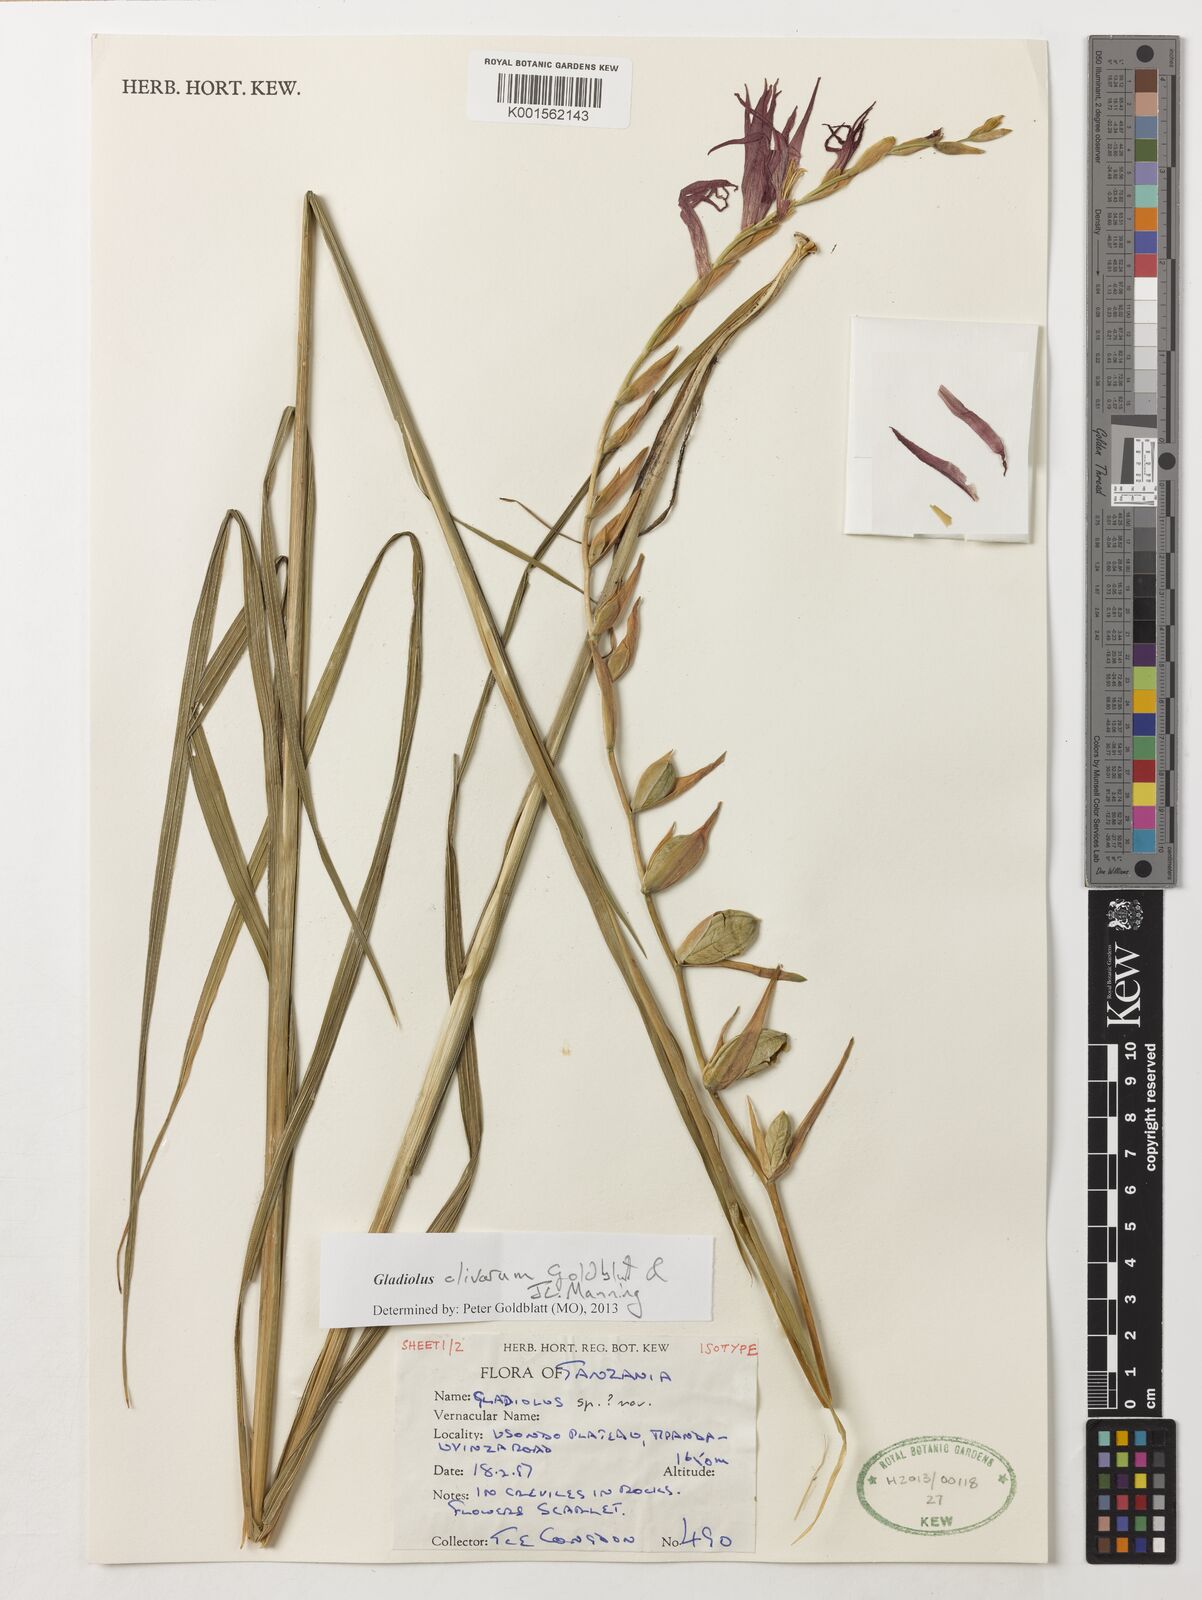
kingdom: Plantae
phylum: Tracheophyta
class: Liliopsida
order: Asparagales
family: Iridaceae
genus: Gladiolus
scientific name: Gladiolus clivorum
